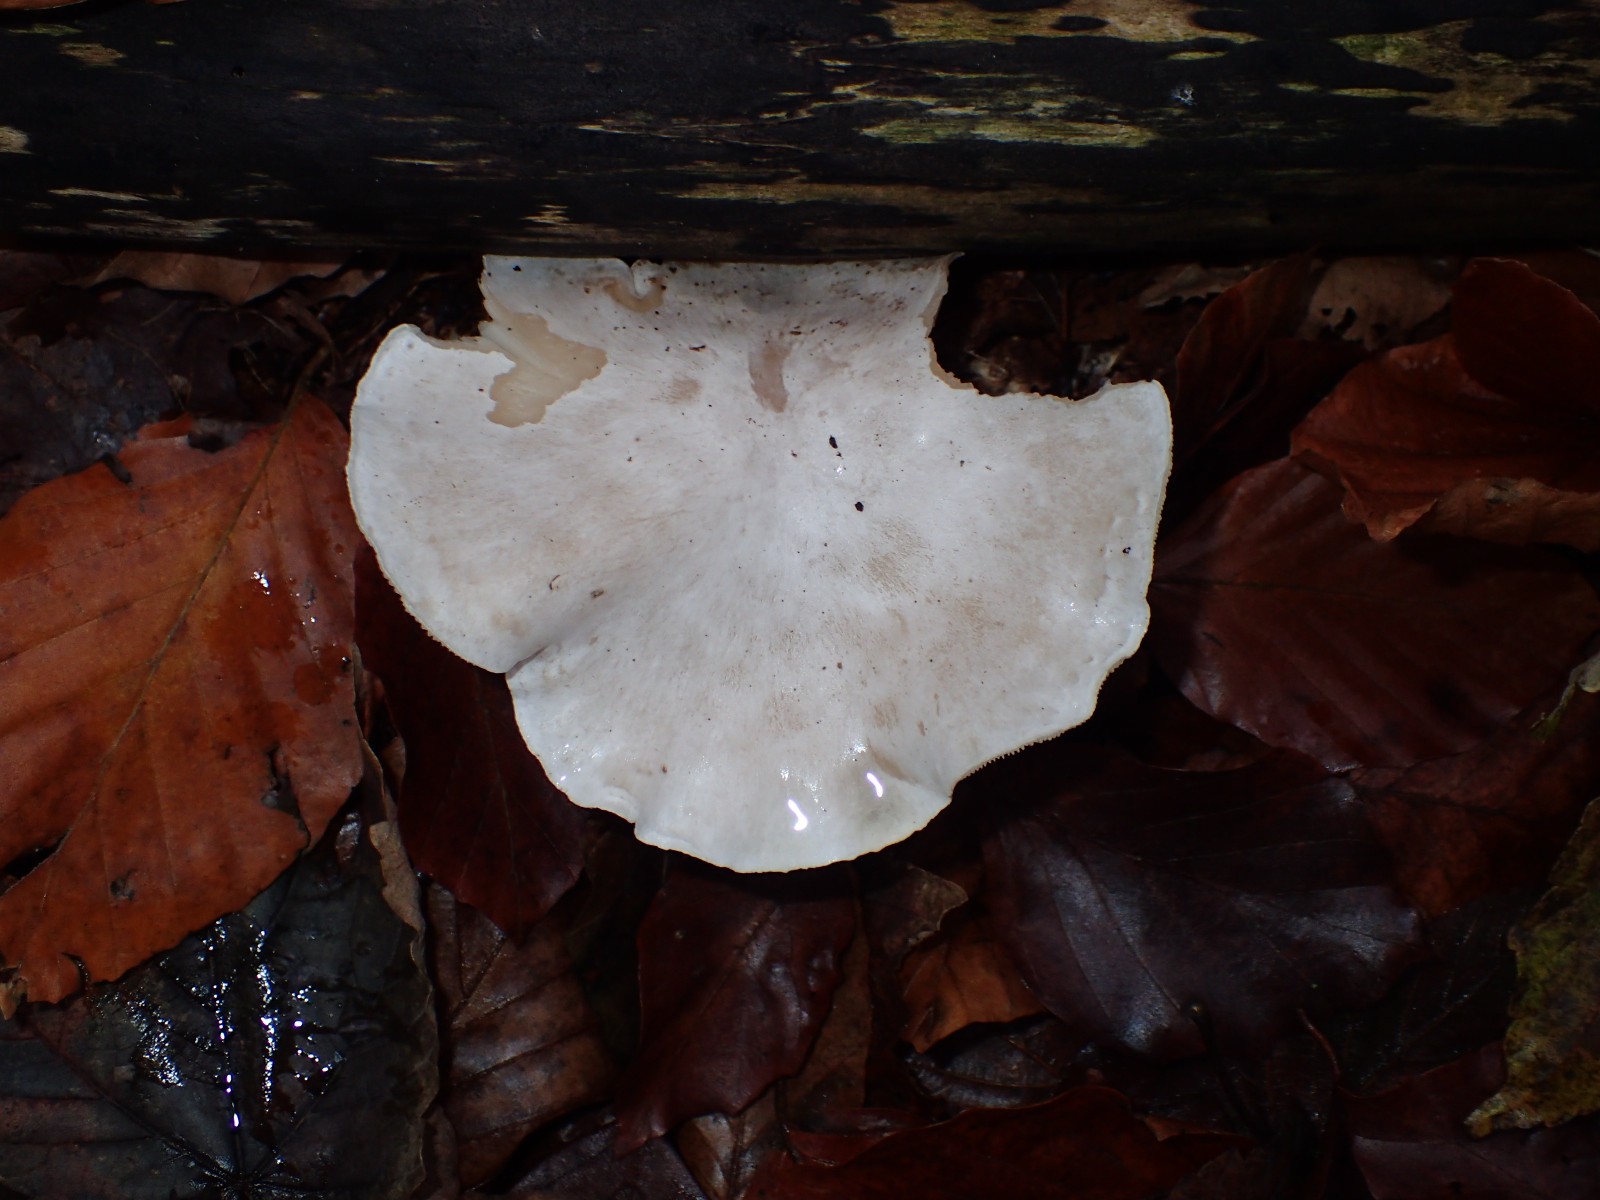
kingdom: Fungi
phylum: Basidiomycota
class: Agaricomycetes
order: Agaricales
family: Entolomataceae
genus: Clitopilus
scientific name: Clitopilus prunulus
